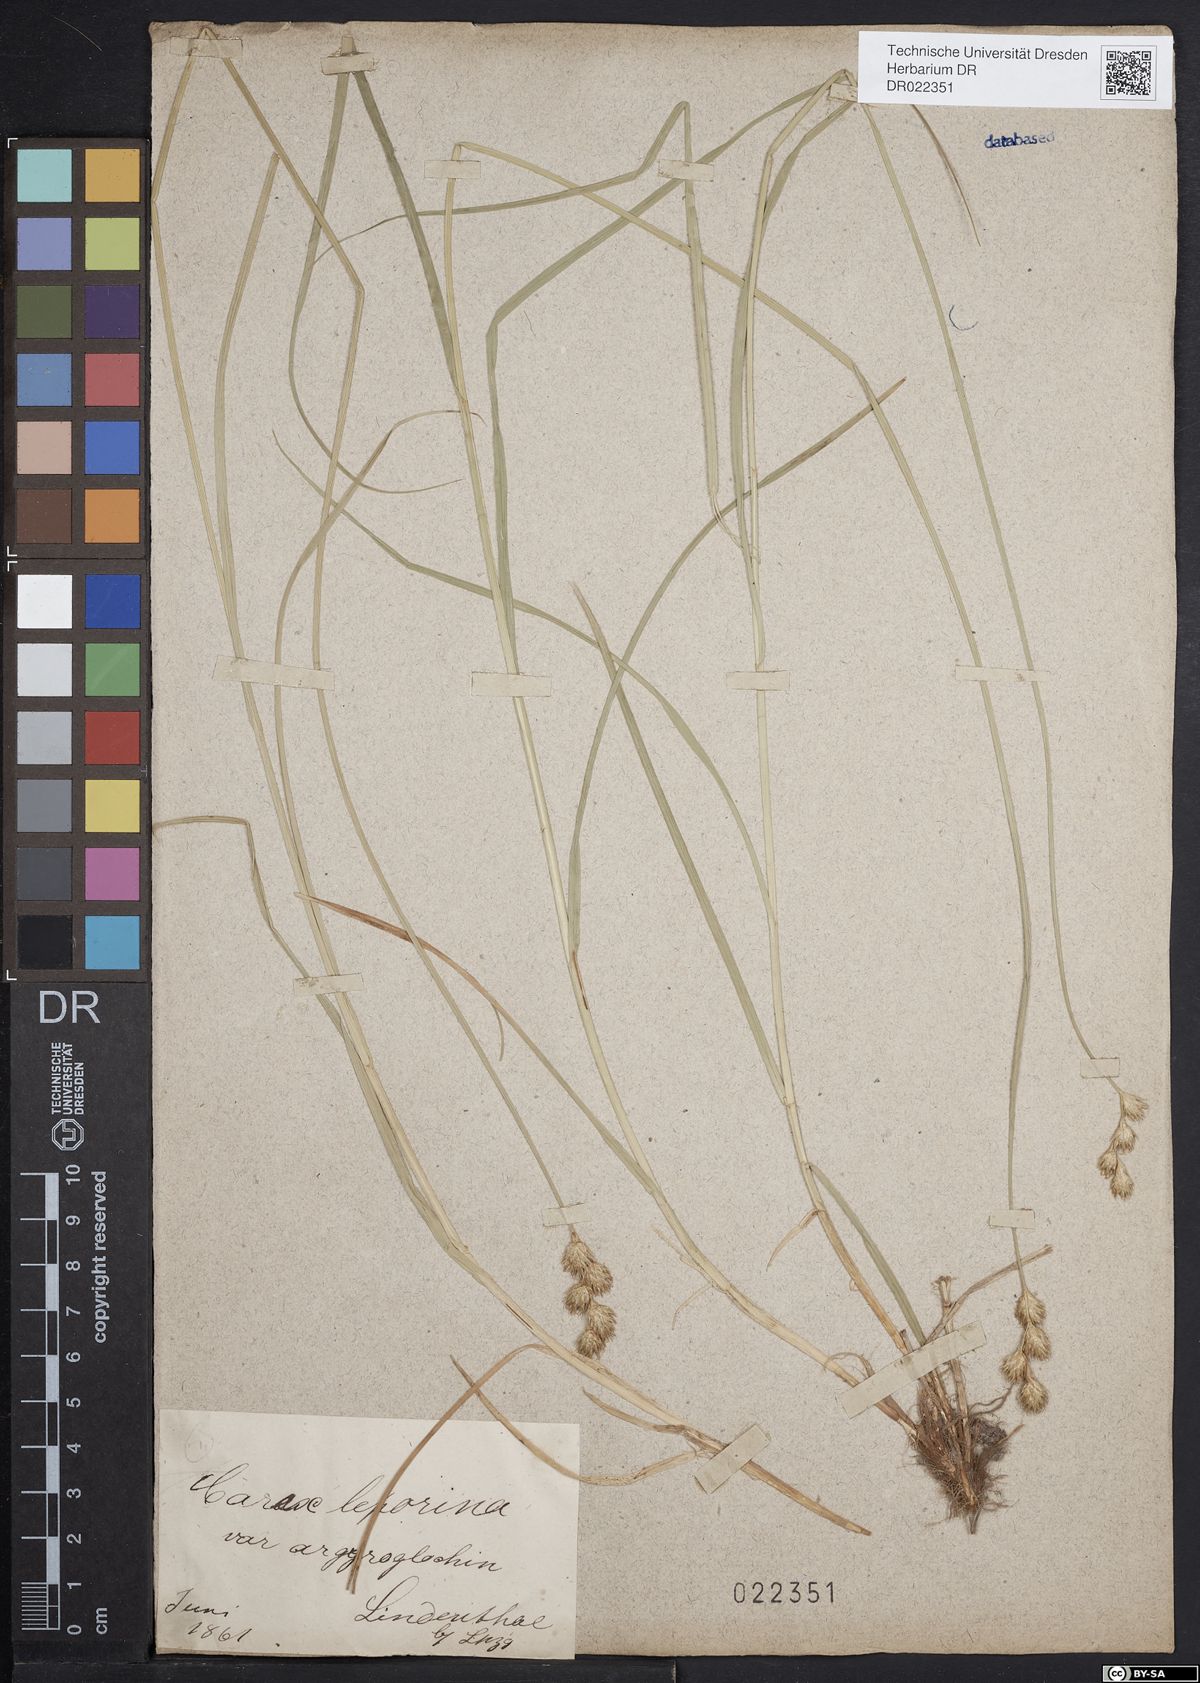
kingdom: Plantae
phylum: Tracheophyta
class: Liliopsida
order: Poales
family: Cyperaceae
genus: Carex
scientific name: Carex leporina
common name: Oval sedge
